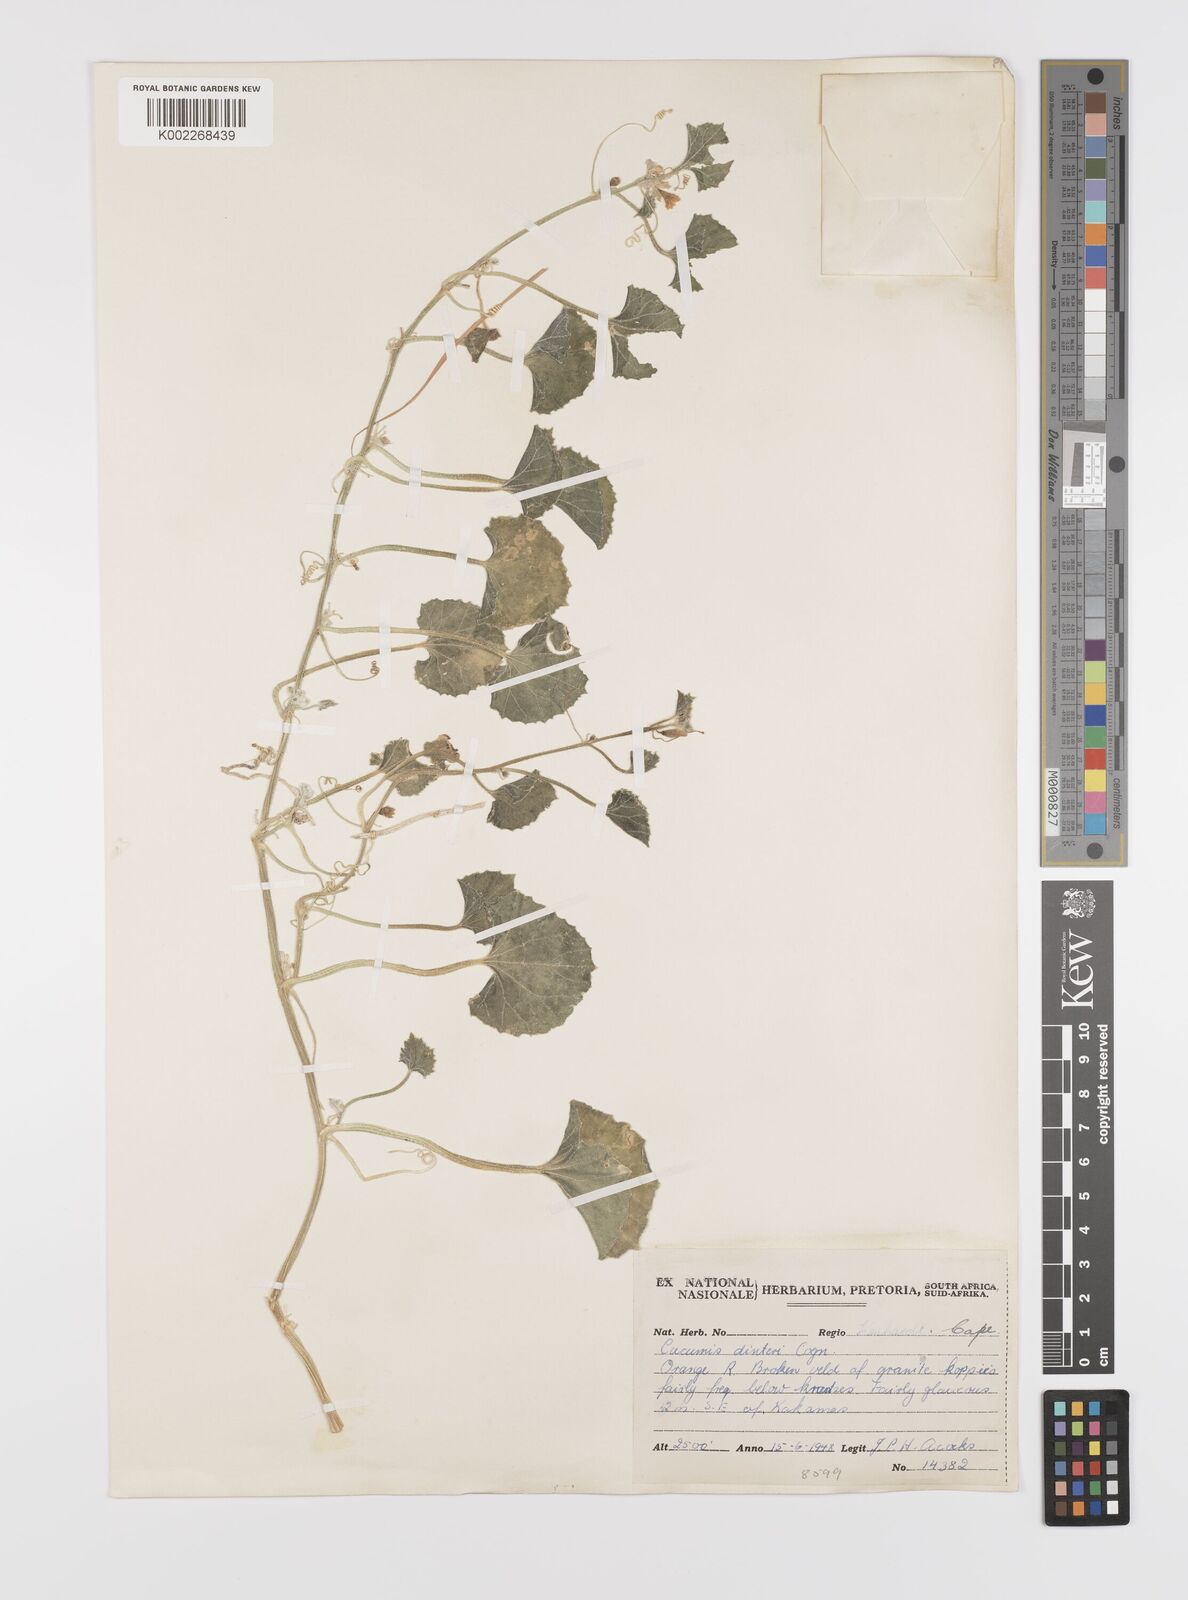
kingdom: Plantae
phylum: Tracheophyta
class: Magnoliopsida
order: Cucurbitales
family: Cucurbitaceae
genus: Cucumis
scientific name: Cucumis sagittatus
